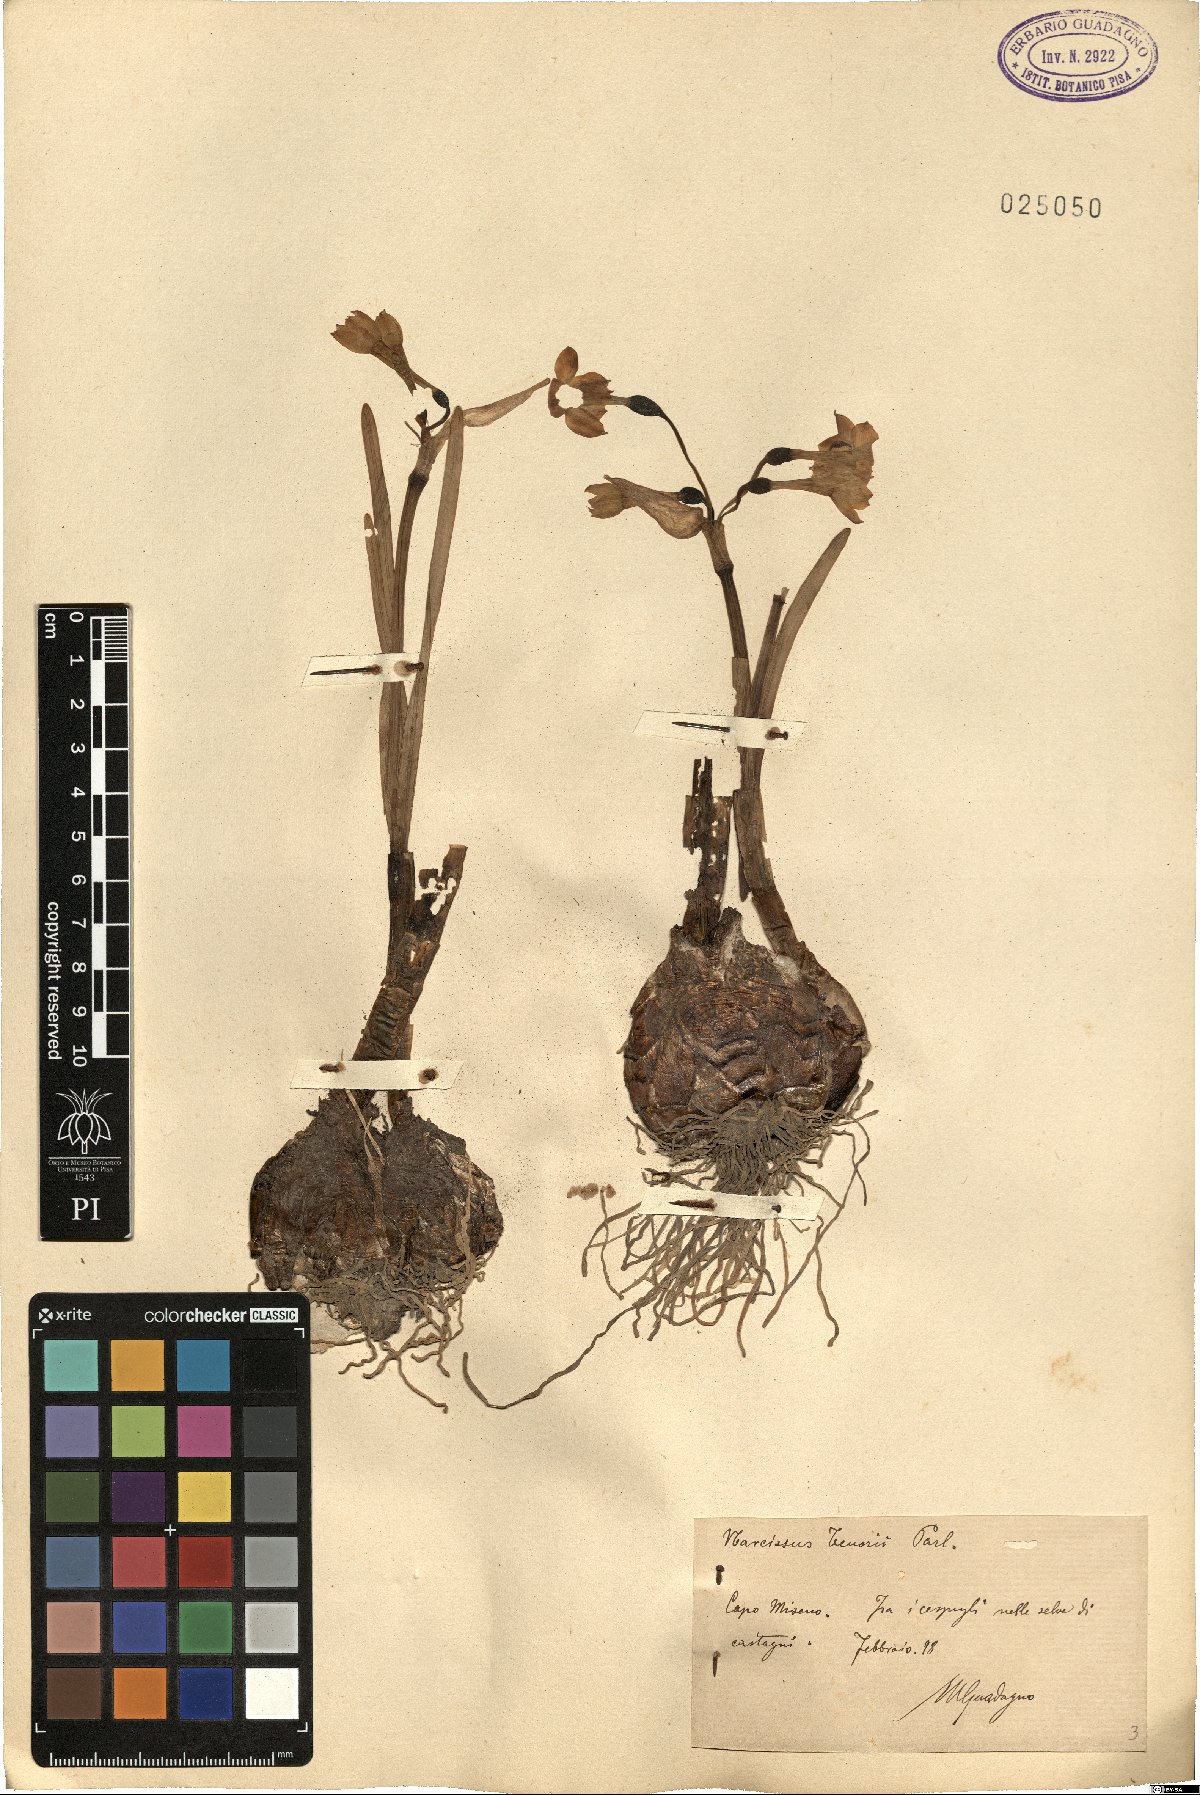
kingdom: Plantae
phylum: Tracheophyta
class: Liliopsida
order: Asparagales
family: Amaryllidaceae
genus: Narcissus
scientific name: Narcissus tazetta
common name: Bunch-flowered daffodil
